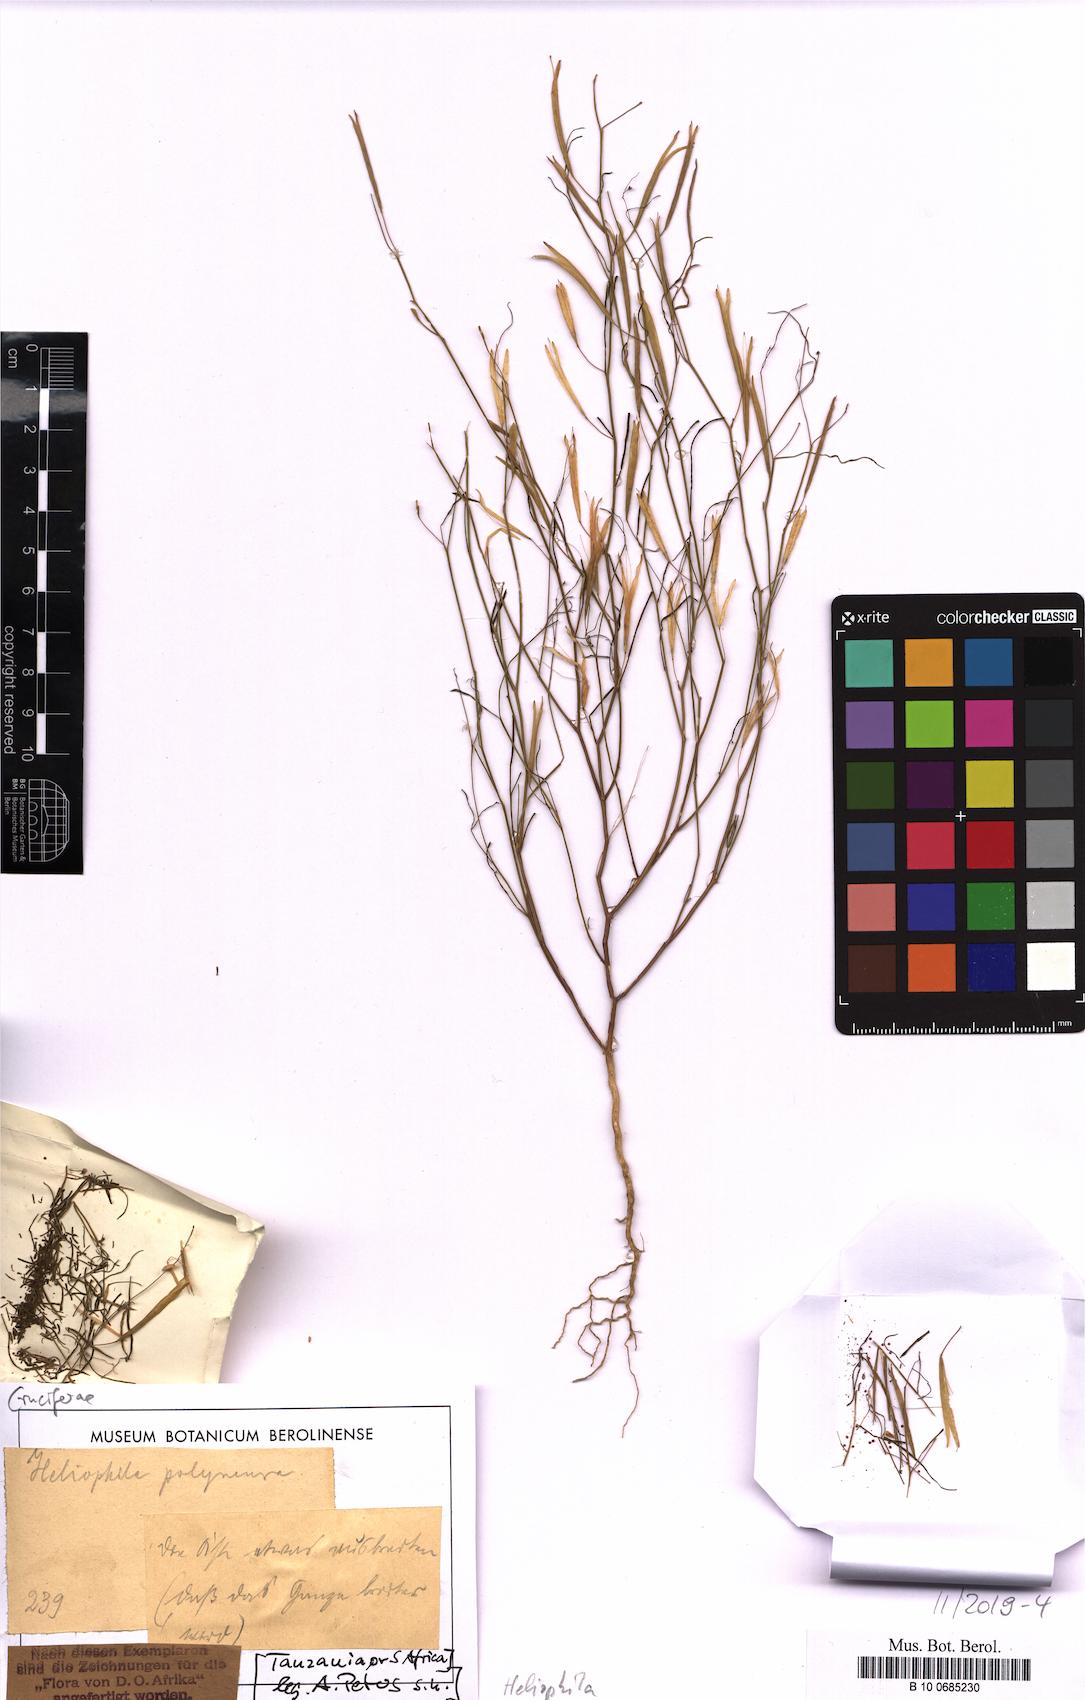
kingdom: Plantae
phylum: Tracheophyta
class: Magnoliopsida
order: Brassicales
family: Brassicaceae
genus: Heliophila
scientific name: Heliophila
